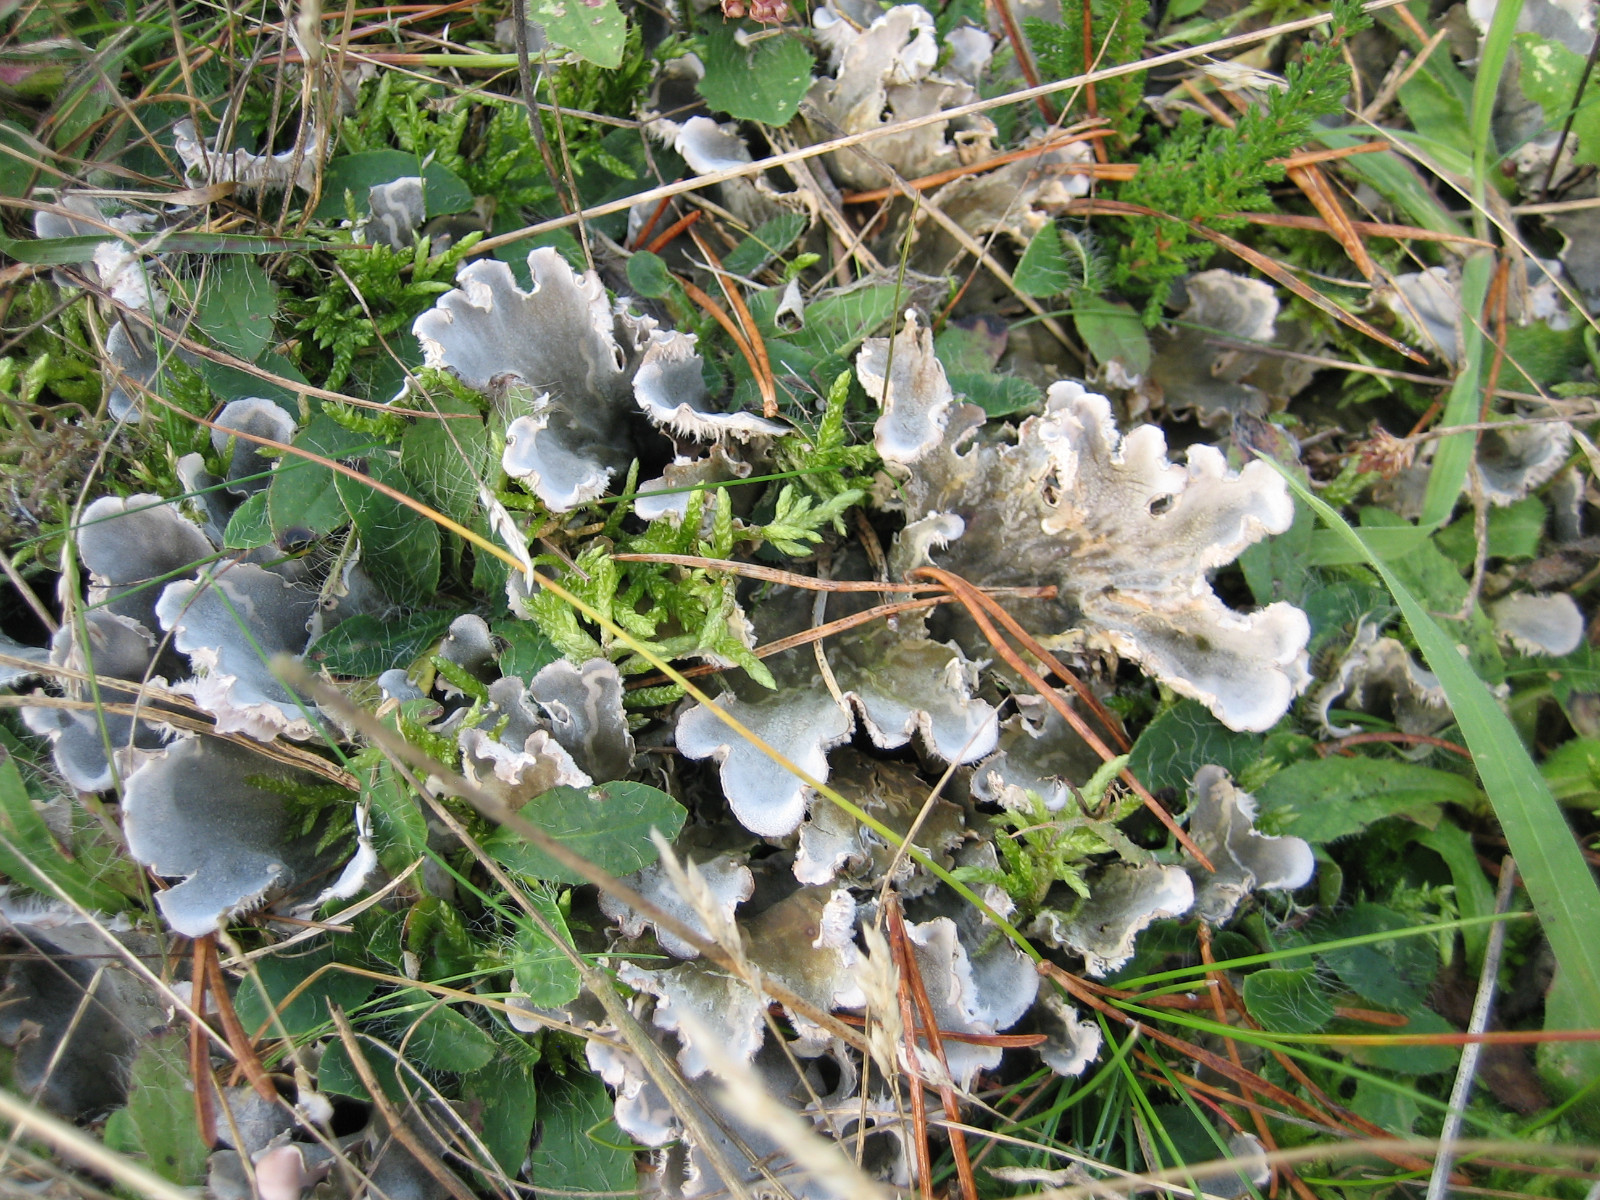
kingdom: Fungi
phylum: Ascomycota
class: Lecanoromycetes
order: Peltigerales
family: Peltigeraceae
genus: Peltigera
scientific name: Peltigera canina
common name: hunde-skjoldlav
